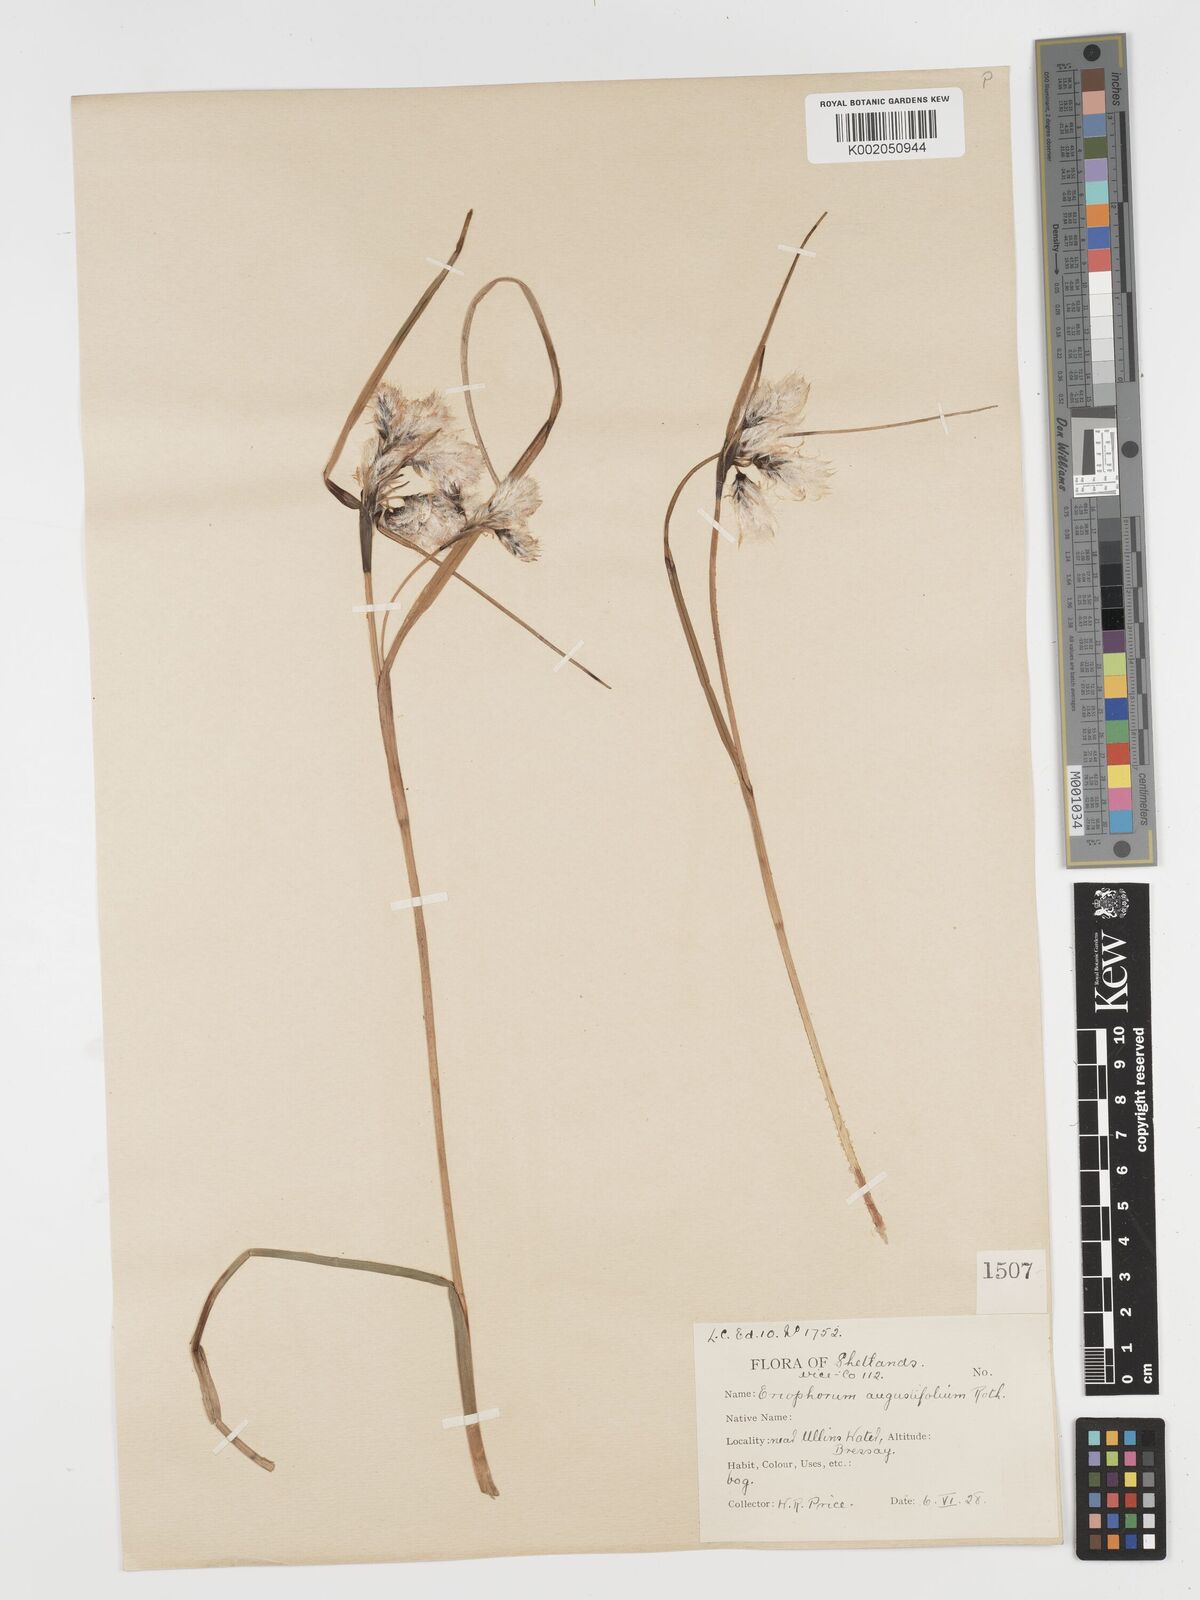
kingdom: Plantae
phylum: Tracheophyta
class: Liliopsida
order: Poales
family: Cyperaceae
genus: Eriophorum
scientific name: Eriophorum angustifolium
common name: Common cottongrass
